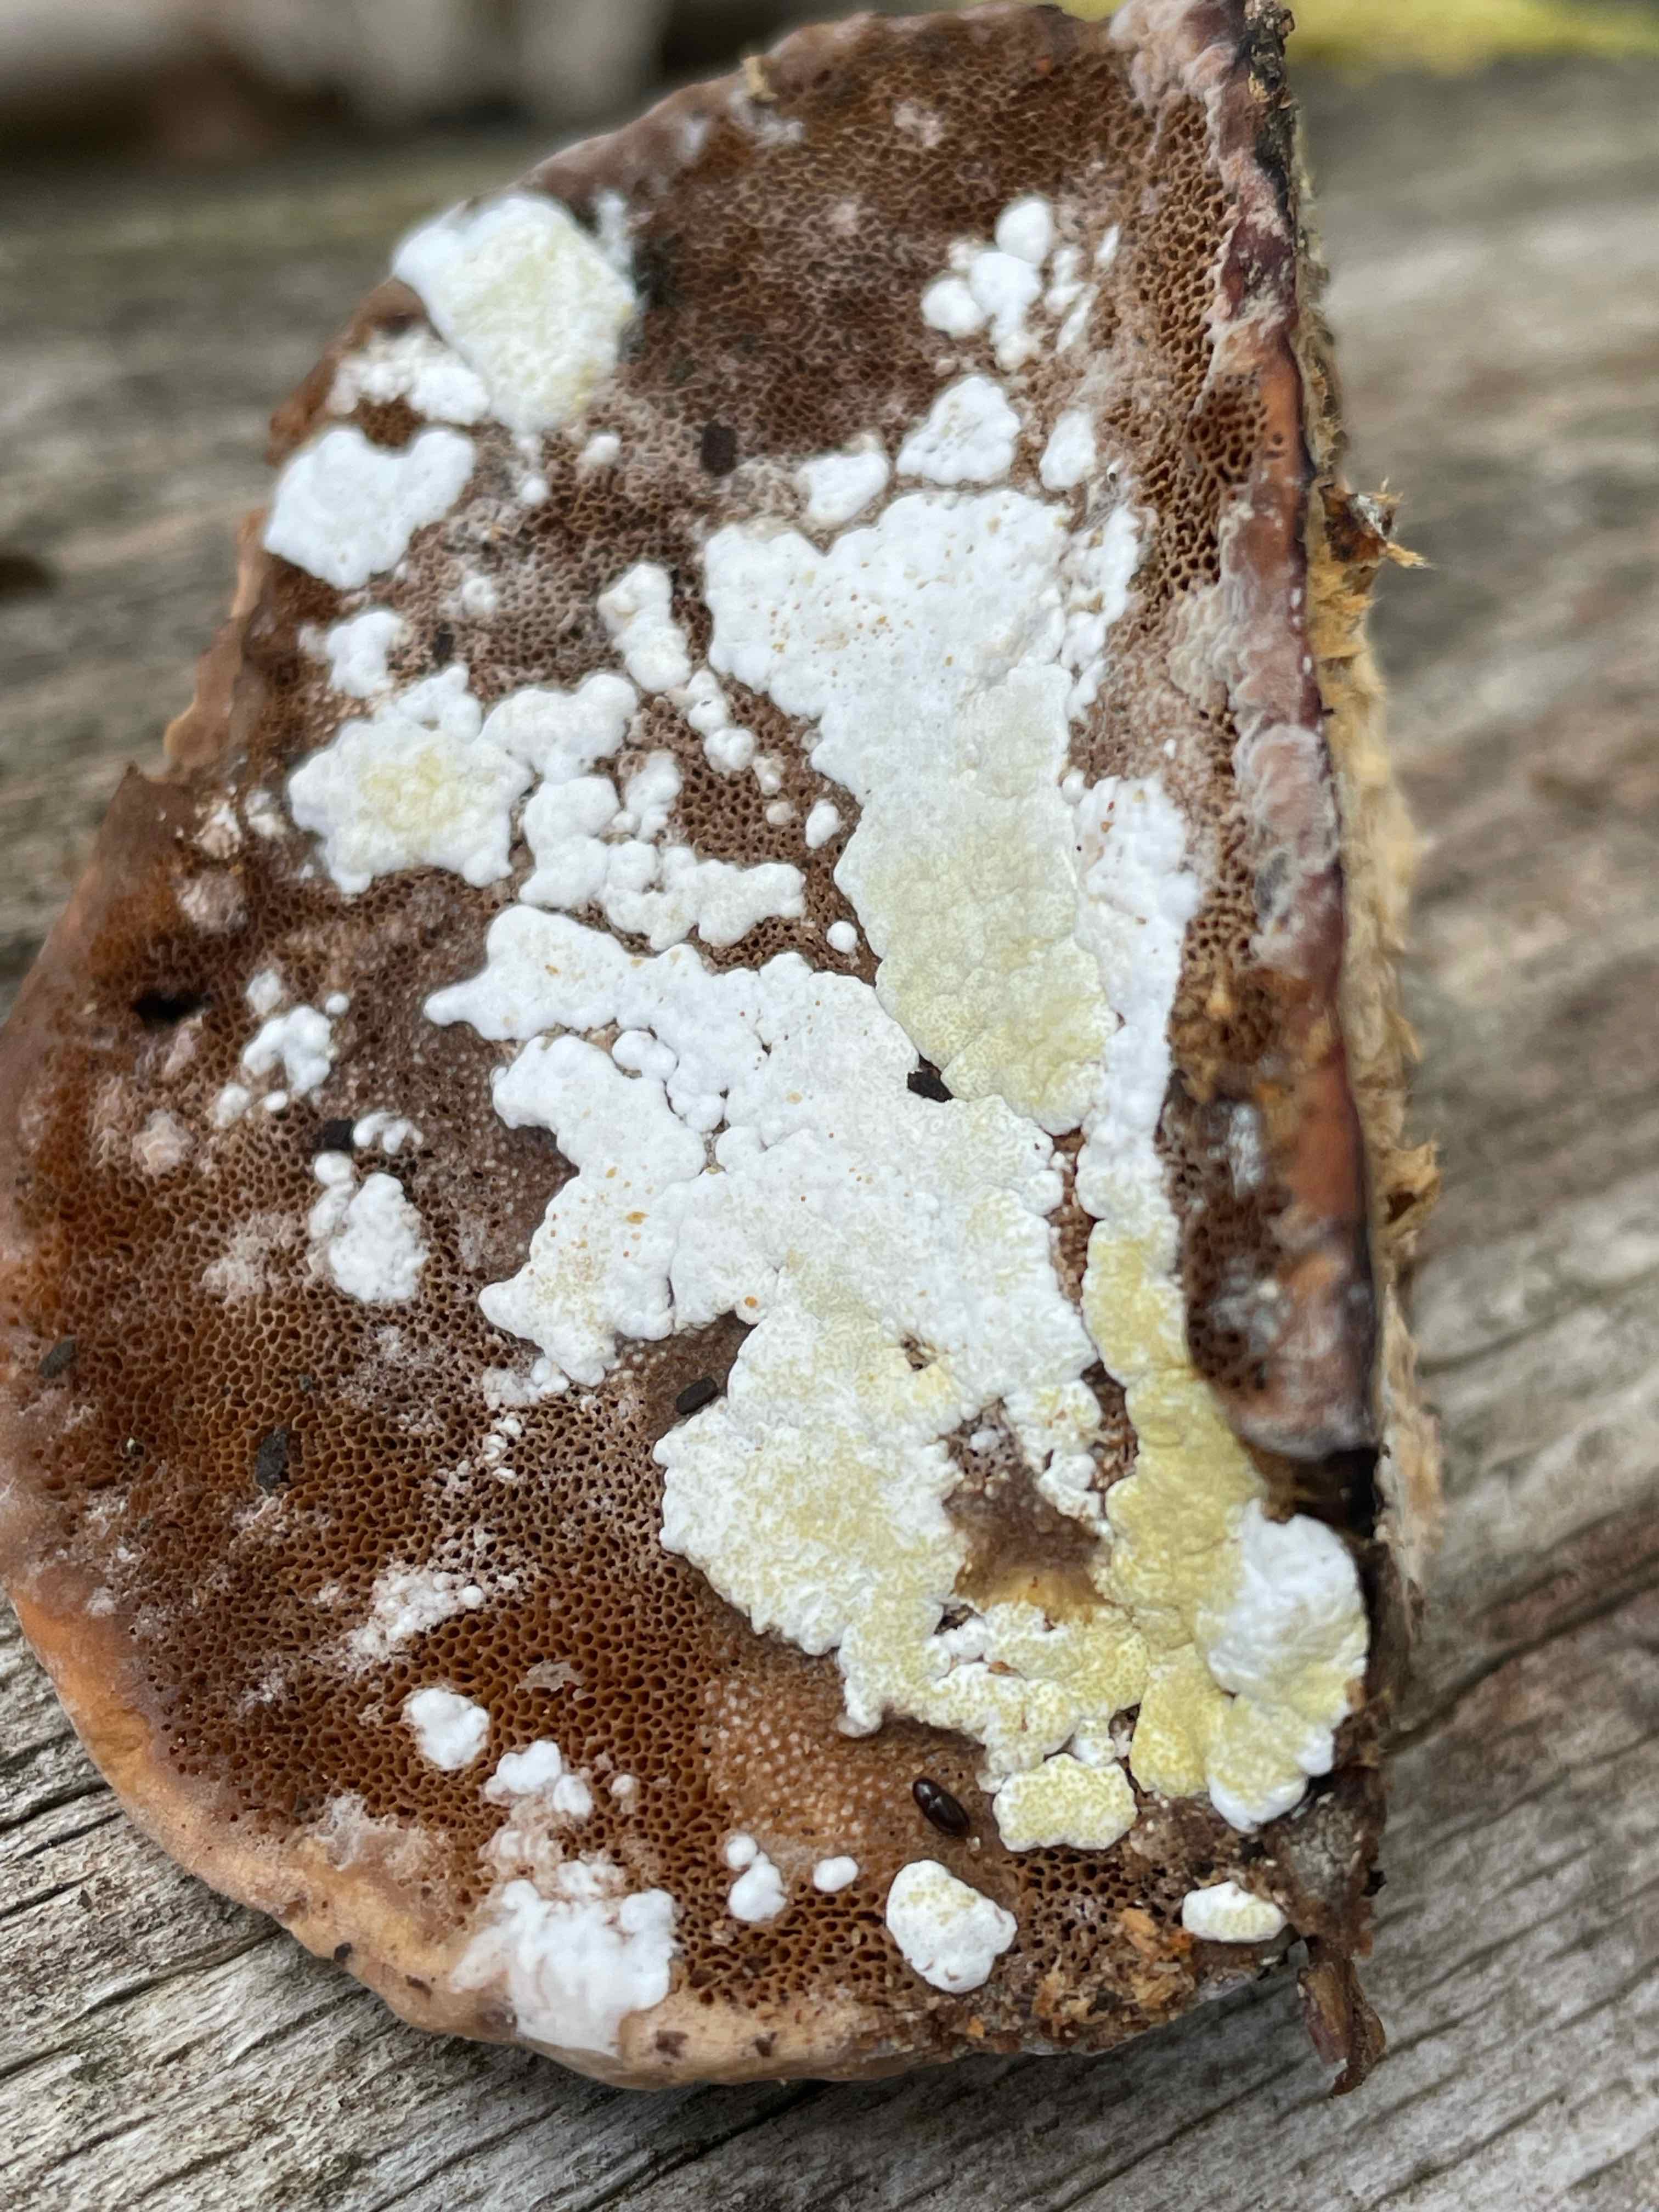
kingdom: Fungi
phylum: Ascomycota
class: Sordariomycetes
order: Hypocreales
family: Hypocreaceae
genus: Trichoderma
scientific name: Trichoderma pulvinatum
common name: snyltende kødkerne
